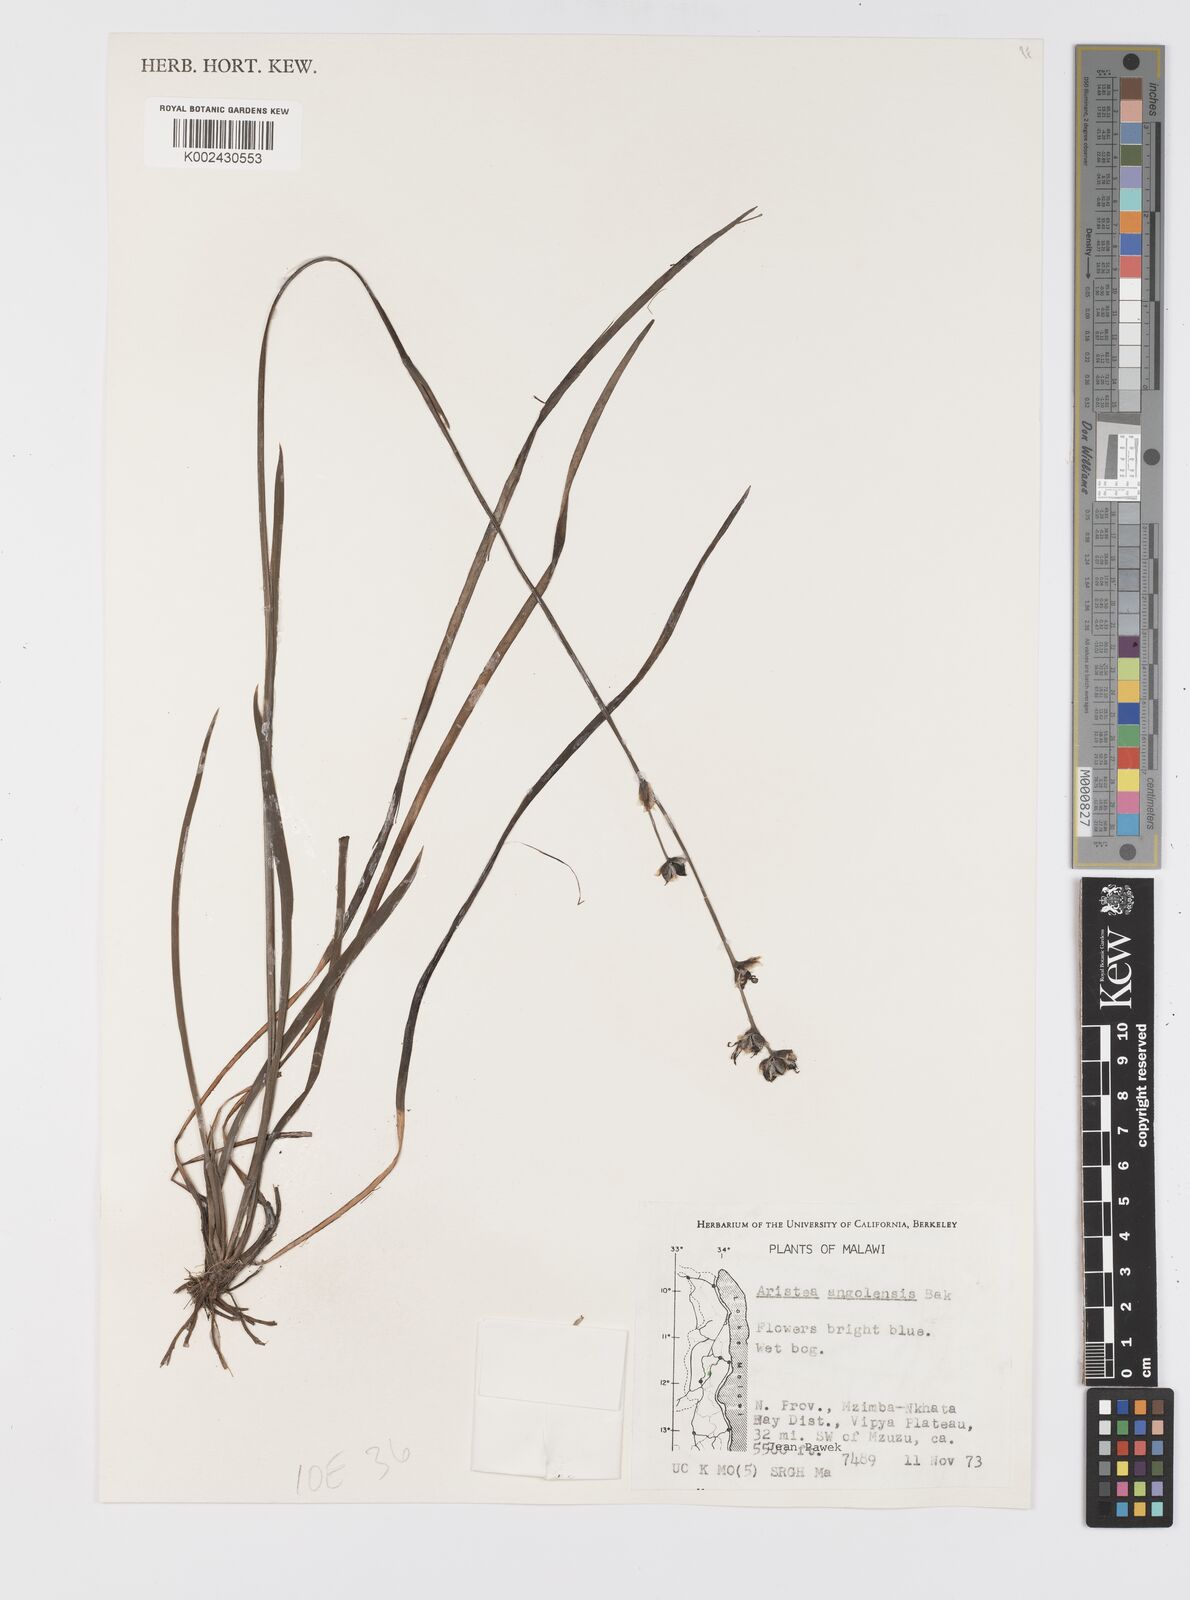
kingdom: Plantae
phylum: Tracheophyta
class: Liliopsida
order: Asparagales
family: Iridaceae
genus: Aristea
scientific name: Aristea angolensis
